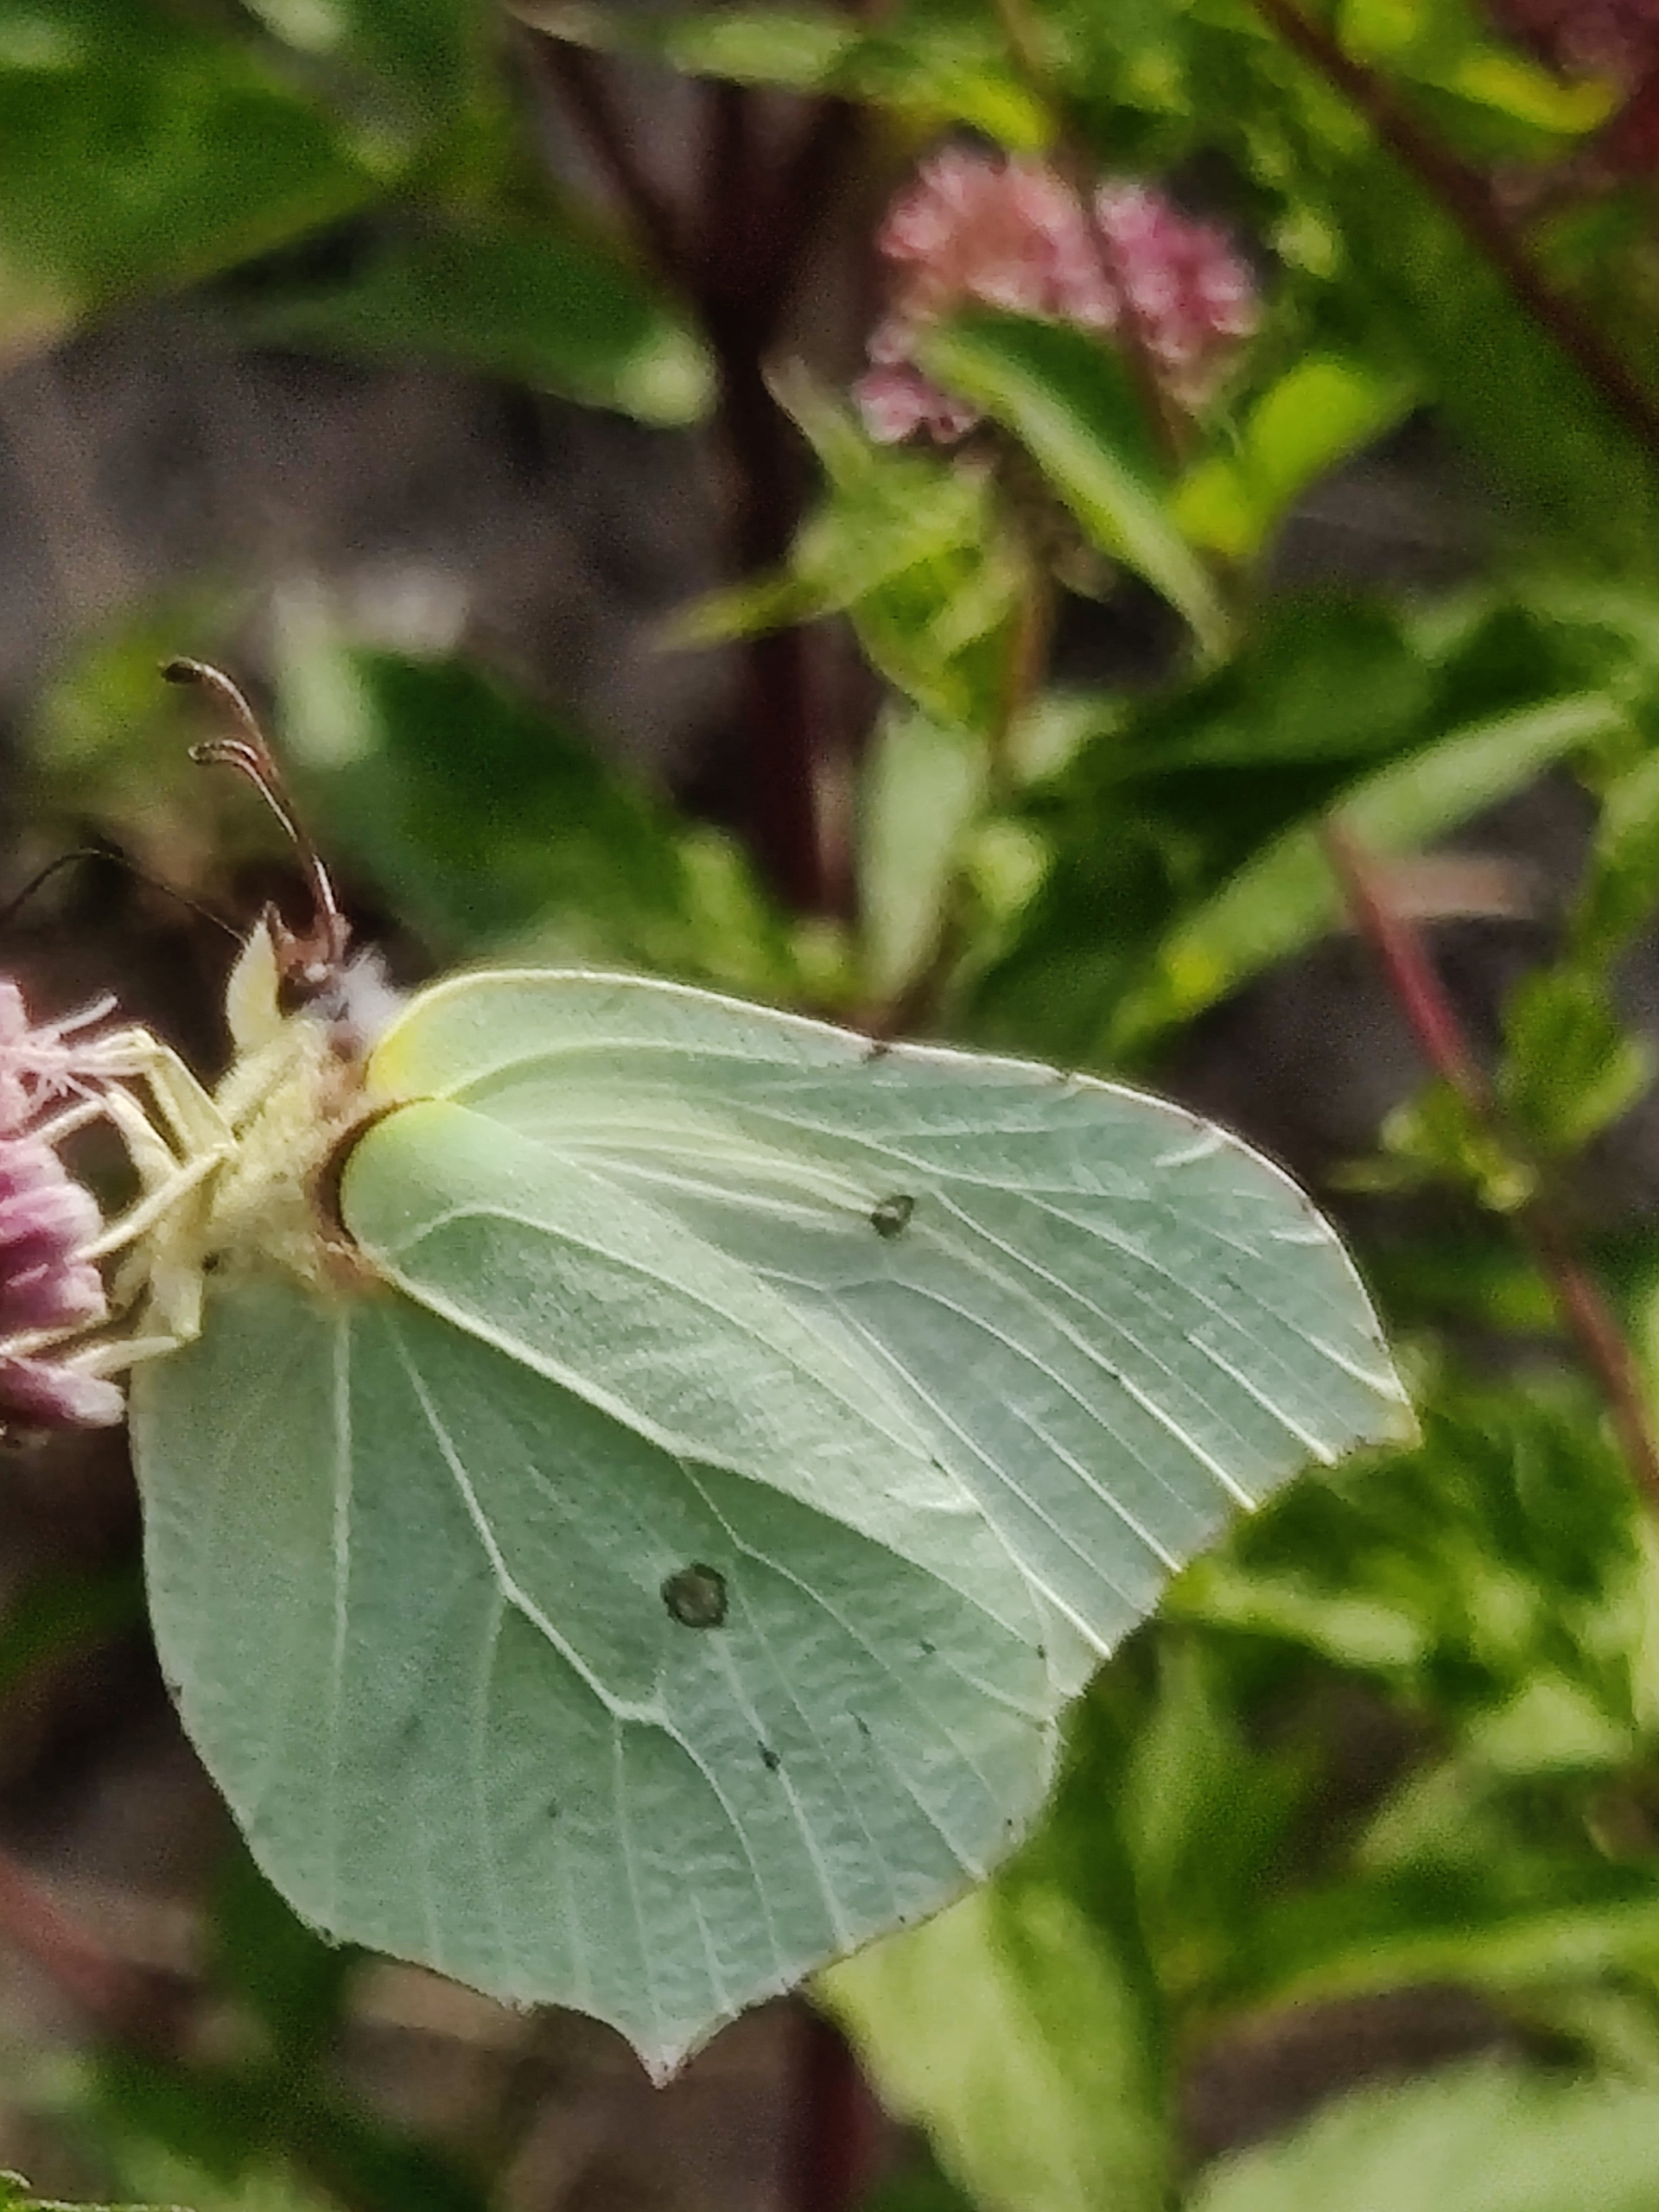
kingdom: Animalia
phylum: Arthropoda
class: Insecta
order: Lepidoptera
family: Pieridae
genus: Gonepteryx
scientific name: Gonepteryx rhamni
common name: Citronsommerfugl
